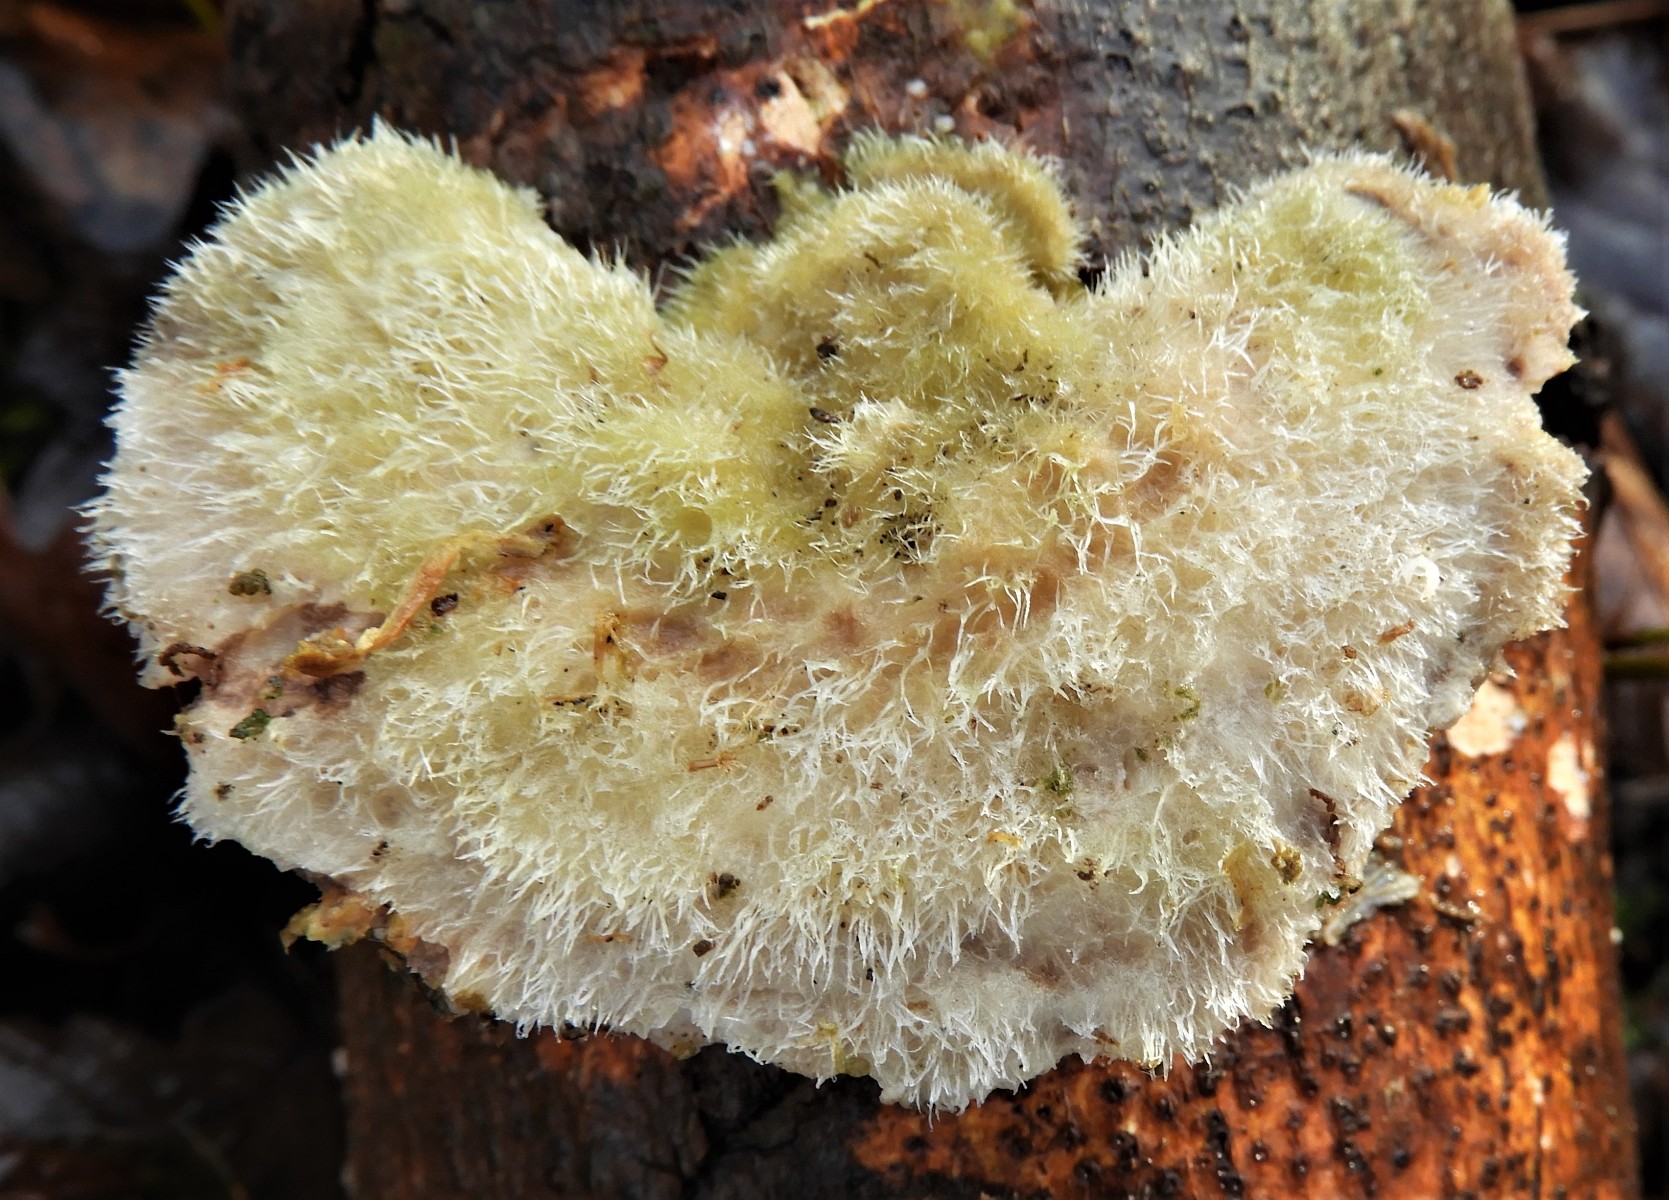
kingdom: Fungi
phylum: Basidiomycota
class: Agaricomycetes
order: Polyporales
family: Polyporaceae
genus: Trametes
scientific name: Trametes hirsuta
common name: håret læderporesvamp
